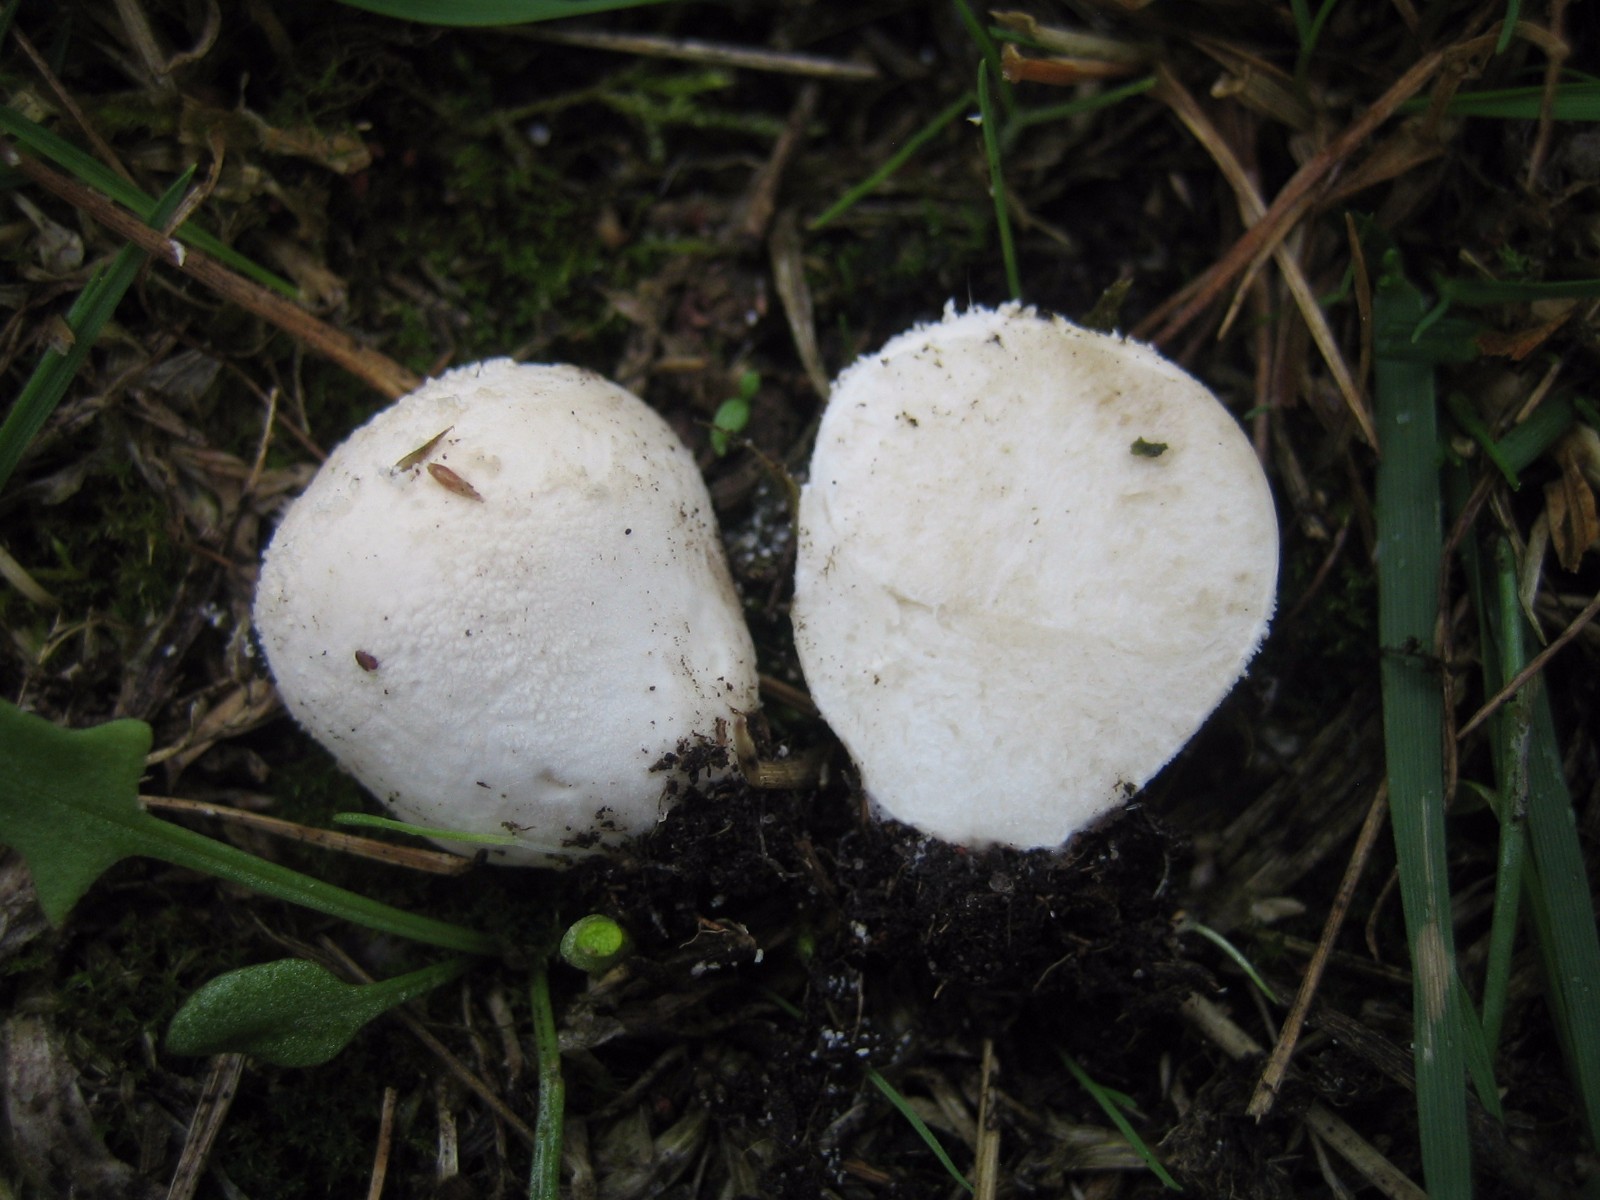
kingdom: Fungi
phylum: Basidiomycota
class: Agaricomycetes
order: Agaricales
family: Lycoperdaceae
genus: Lycoperdon
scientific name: Lycoperdon pratense
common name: flad støvbold
